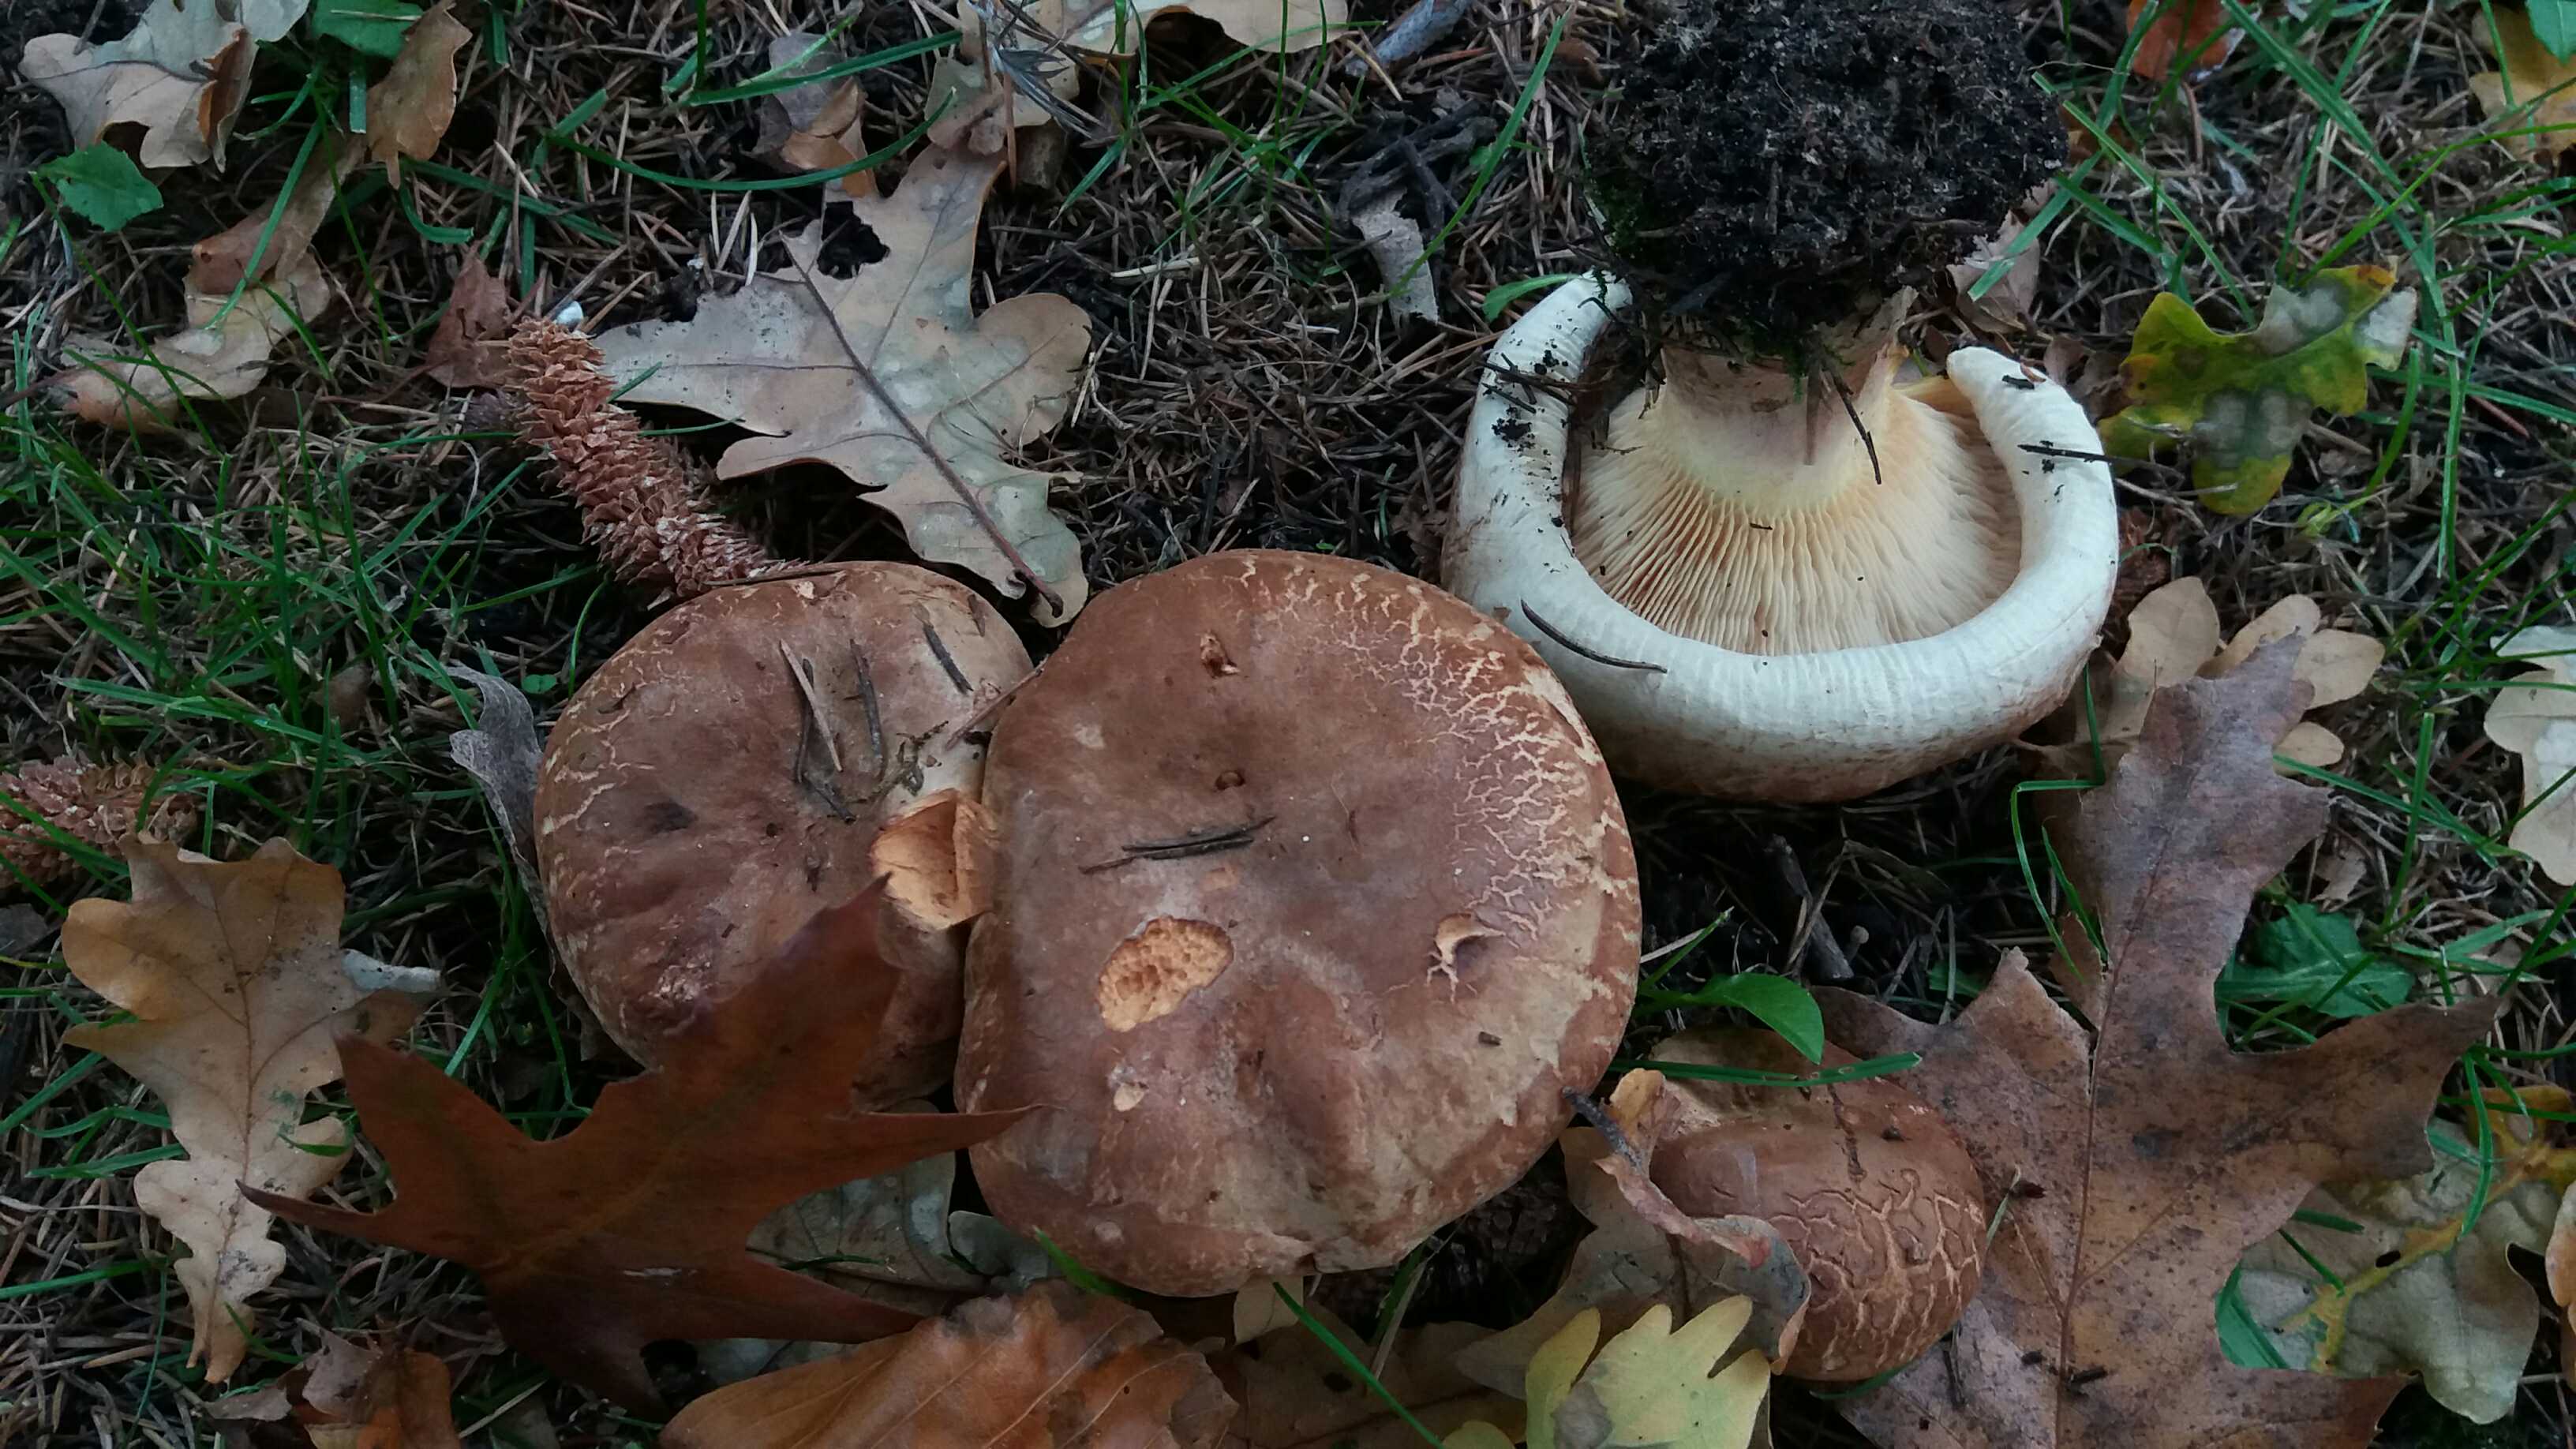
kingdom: Fungi
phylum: Basidiomycota
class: Agaricomycetes
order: Boletales
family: Paxillaceae
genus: Paxillus
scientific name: Paxillus rubicundulus
